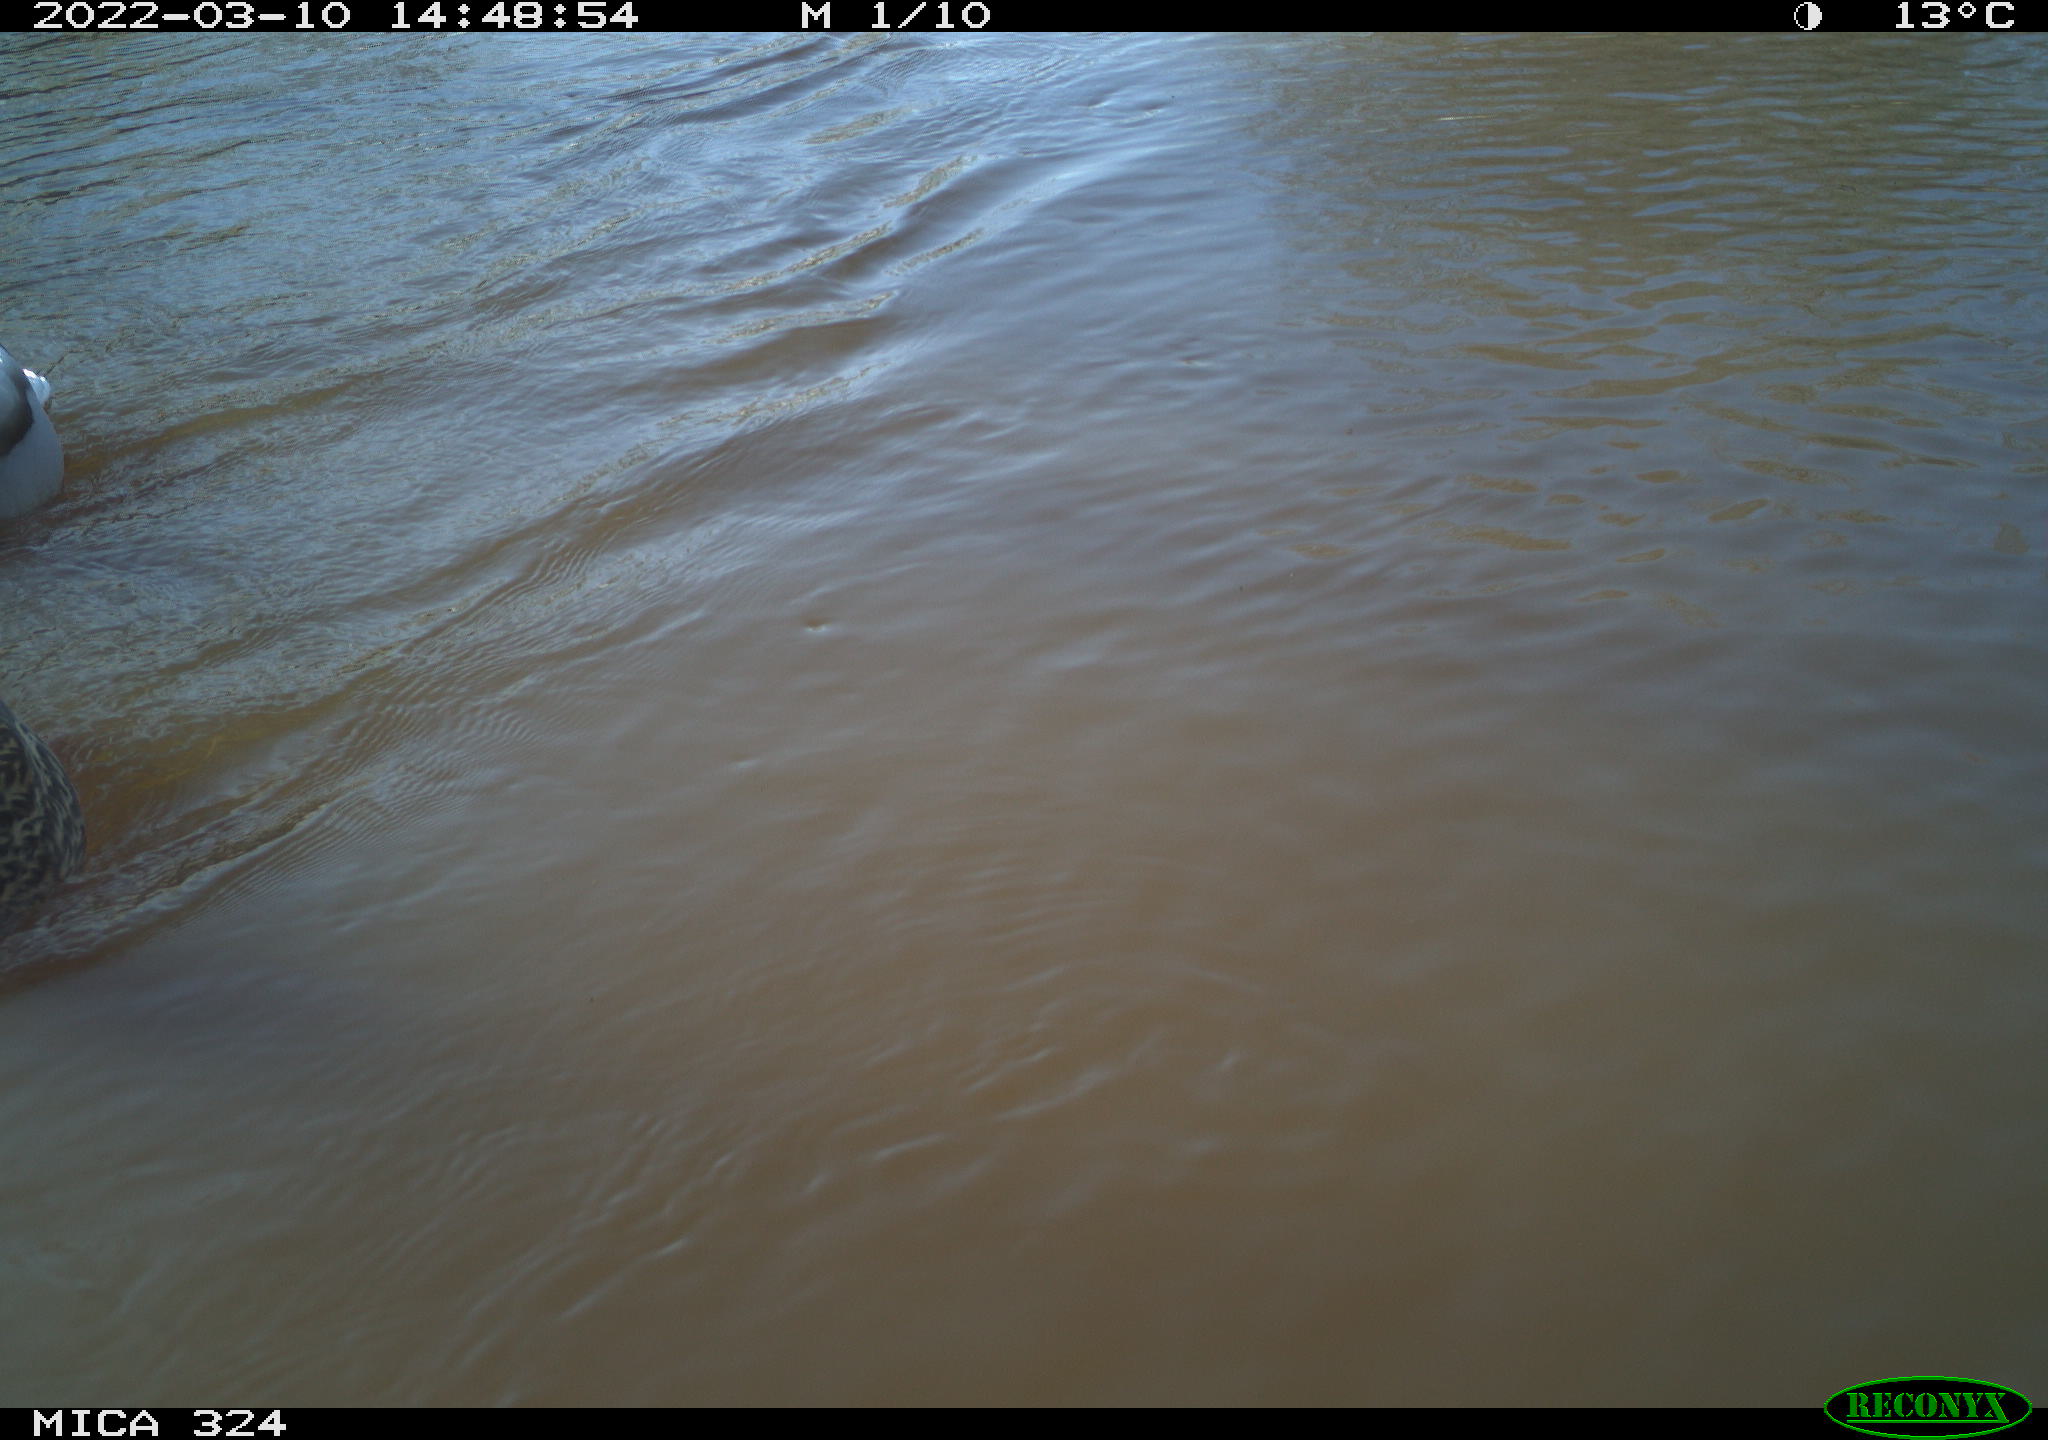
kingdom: Animalia
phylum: Chordata
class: Aves
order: Anseriformes
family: Anatidae
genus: Anas
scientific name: Anas platyrhynchos
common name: Mallard
